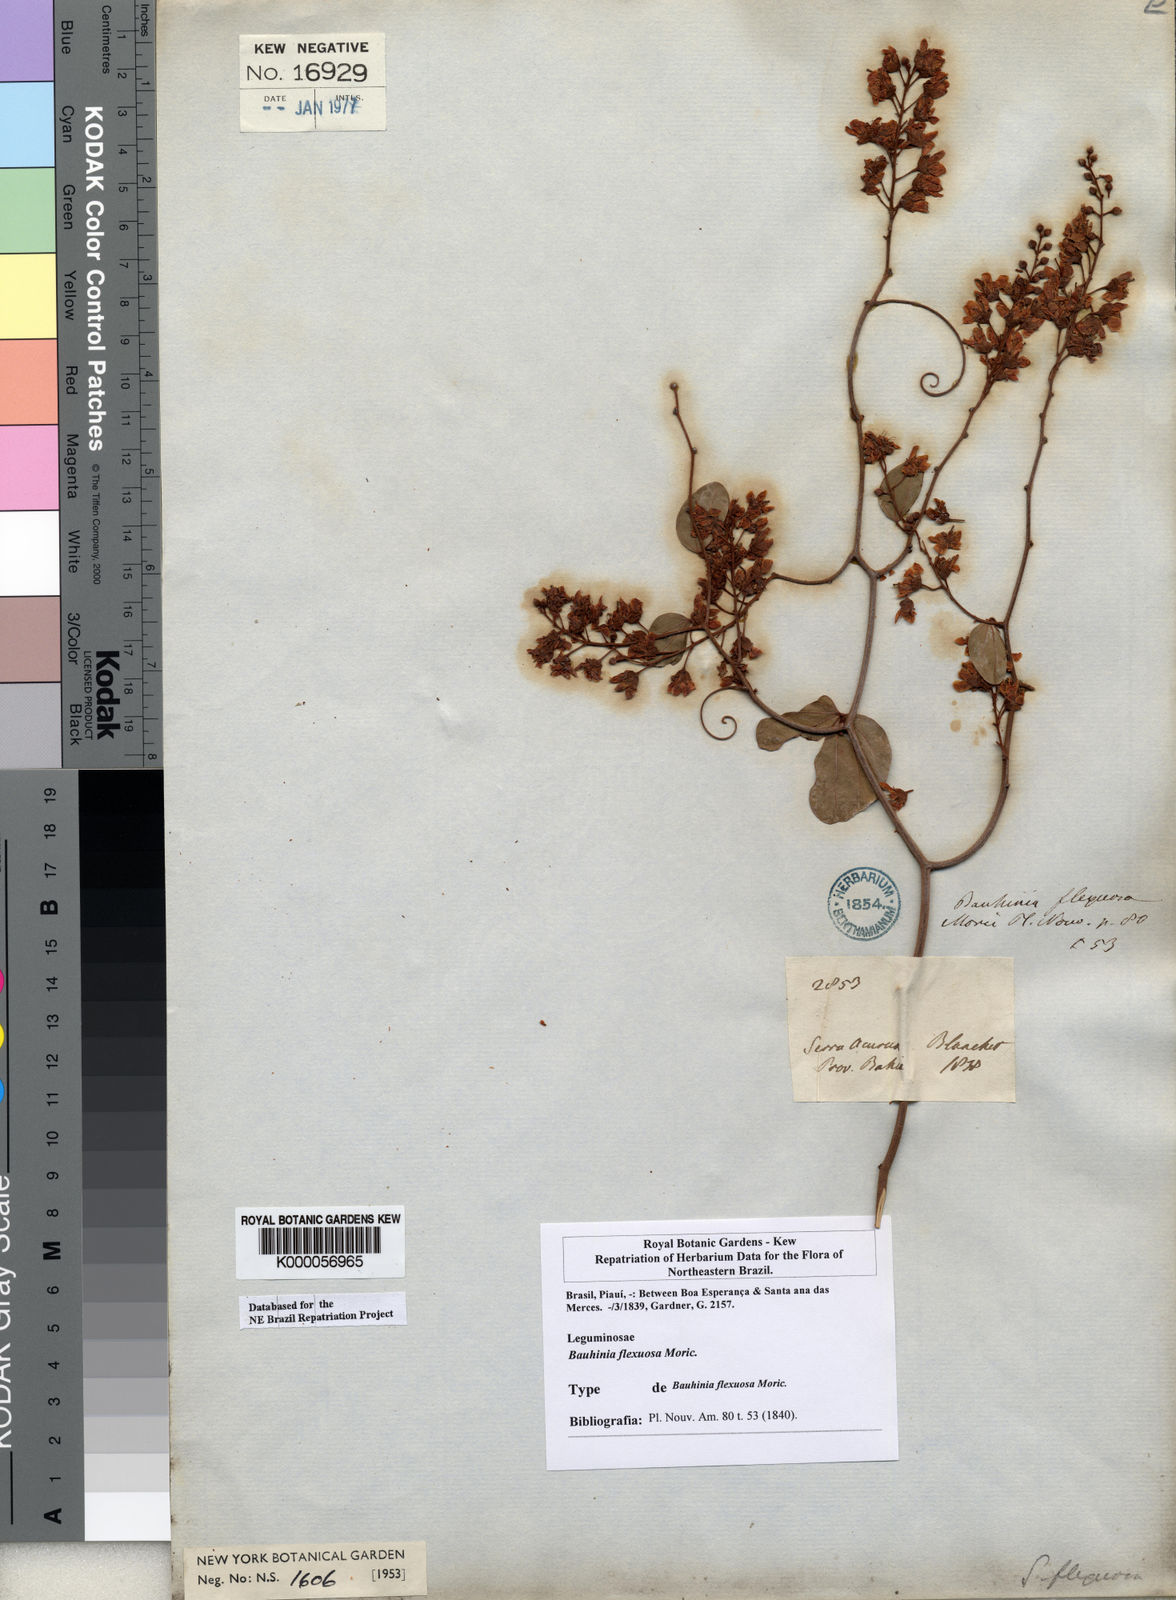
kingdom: Plantae
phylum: Tracheophyta
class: Magnoliopsida
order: Fabales
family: Fabaceae
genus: Schnella
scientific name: Schnella flexuosa
